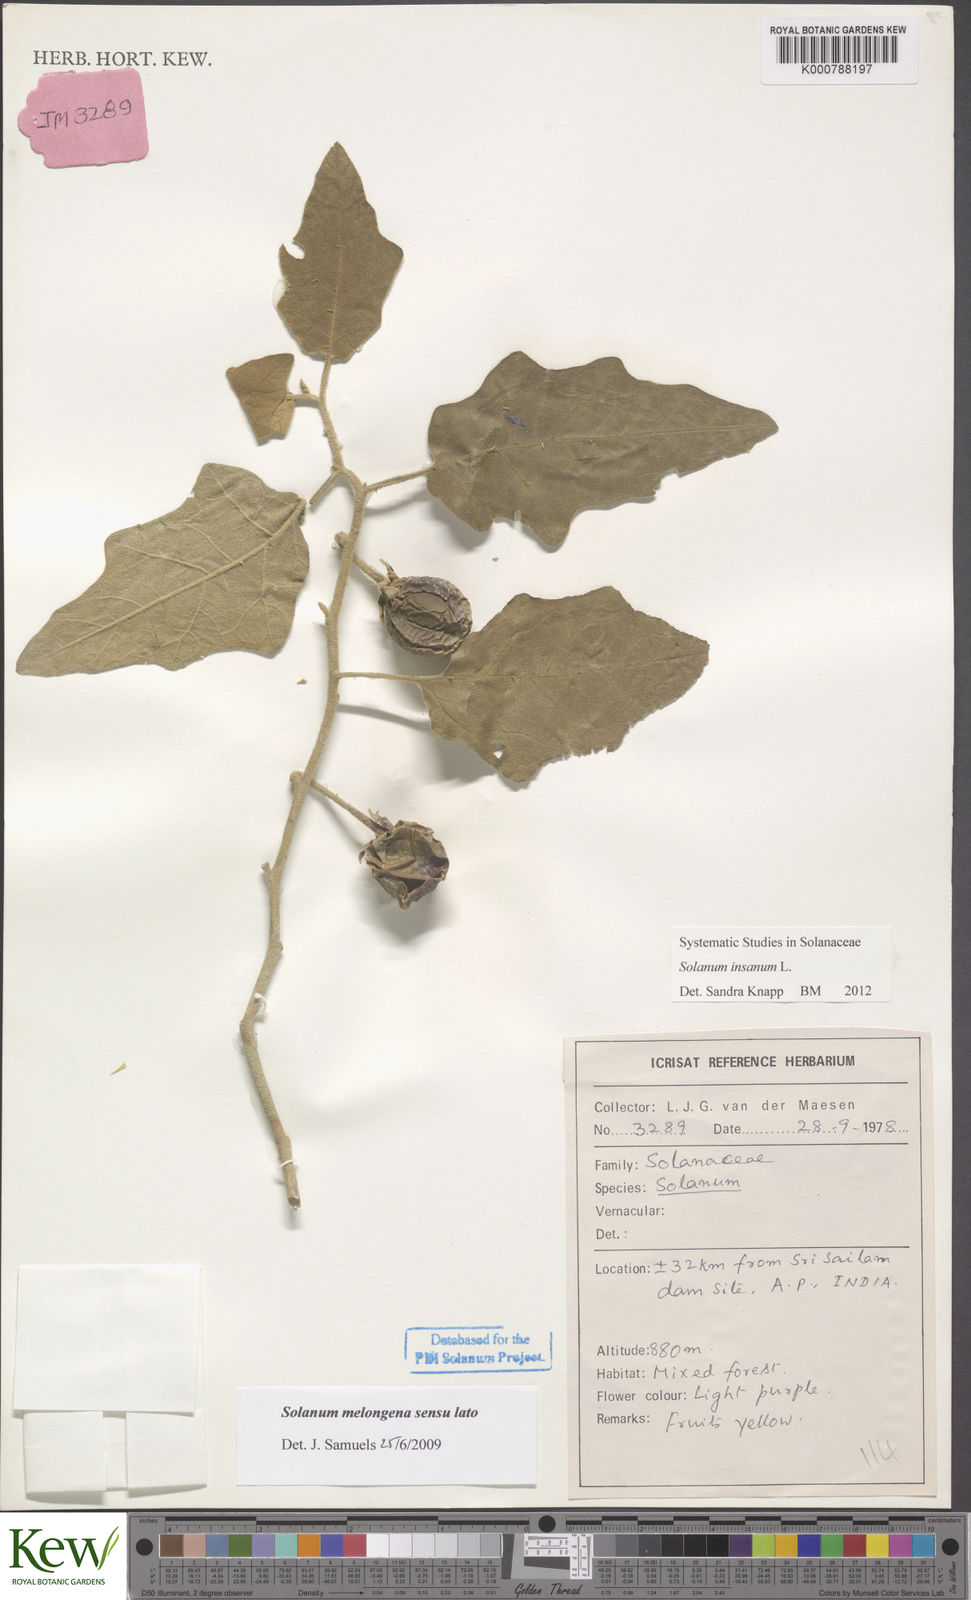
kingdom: Plantae
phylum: Tracheophyta
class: Magnoliopsida
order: Solanales
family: Solanaceae
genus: Solanum
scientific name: Solanum insanum
